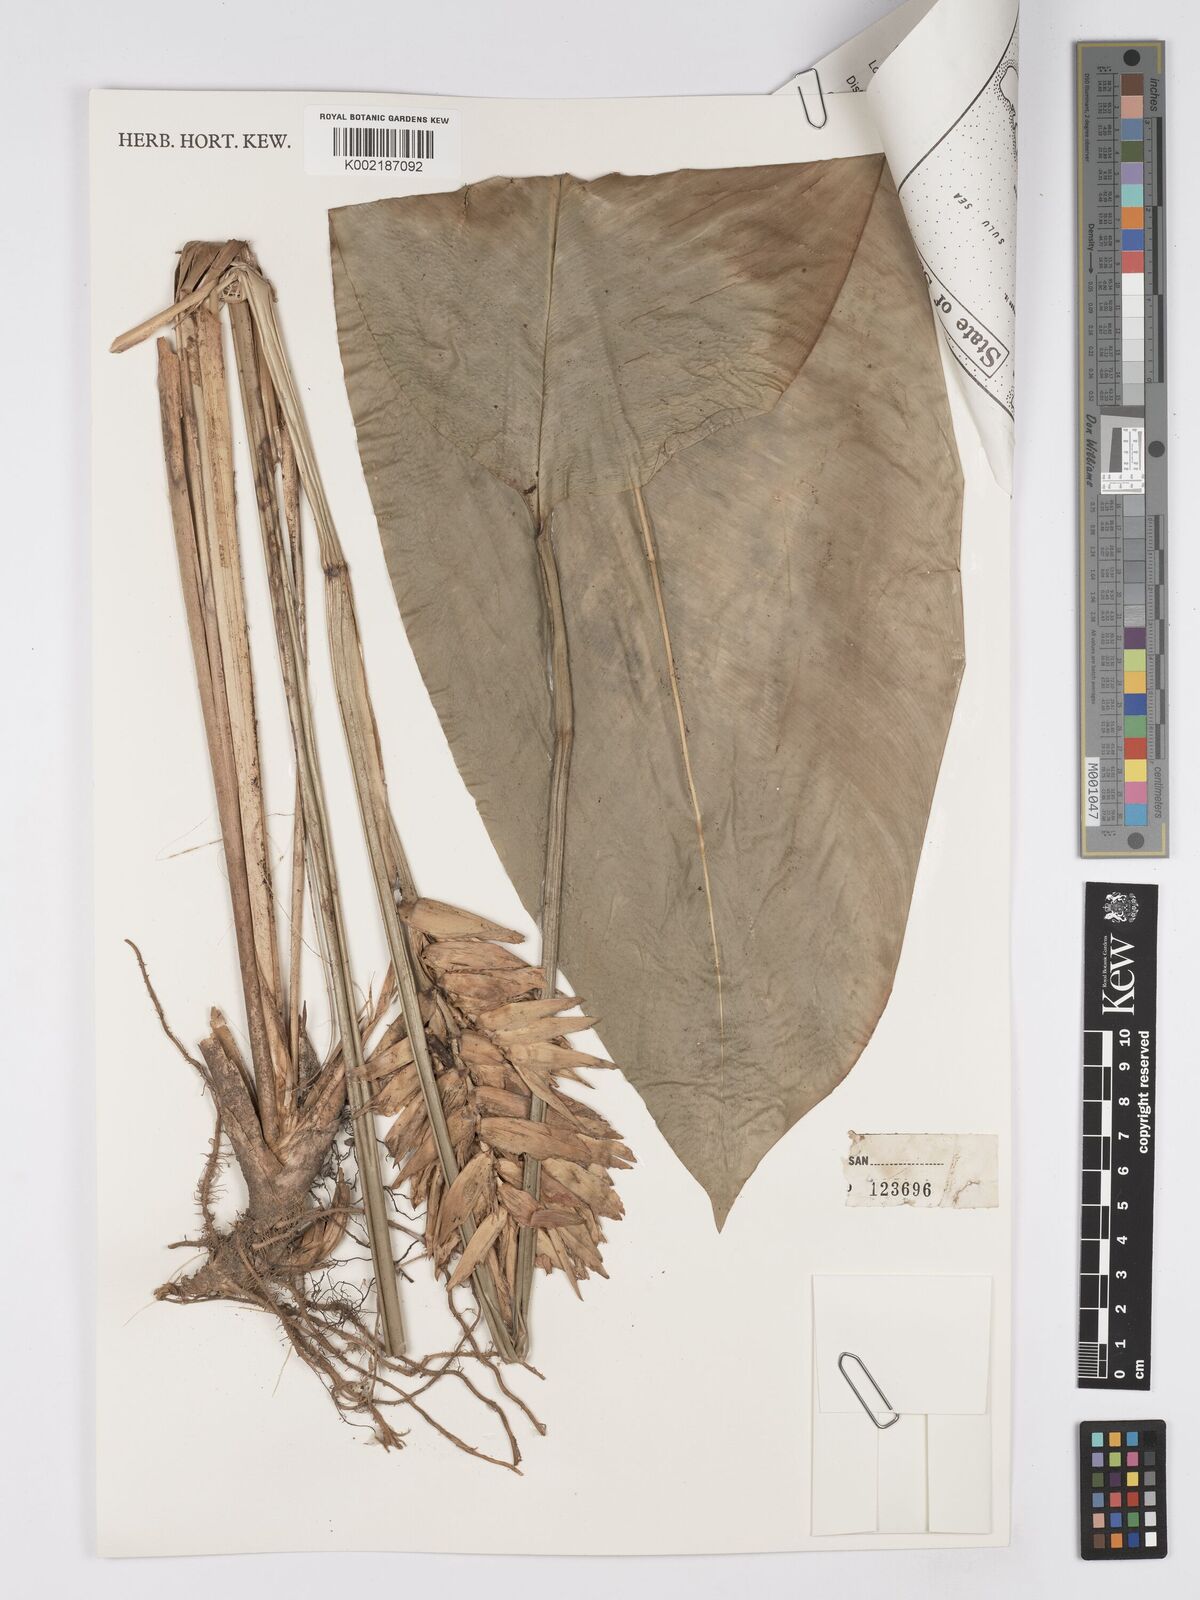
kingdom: Plantae
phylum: Tracheophyta
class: Liliopsida
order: Zingiberales
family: Marantaceae
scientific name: Marantaceae
